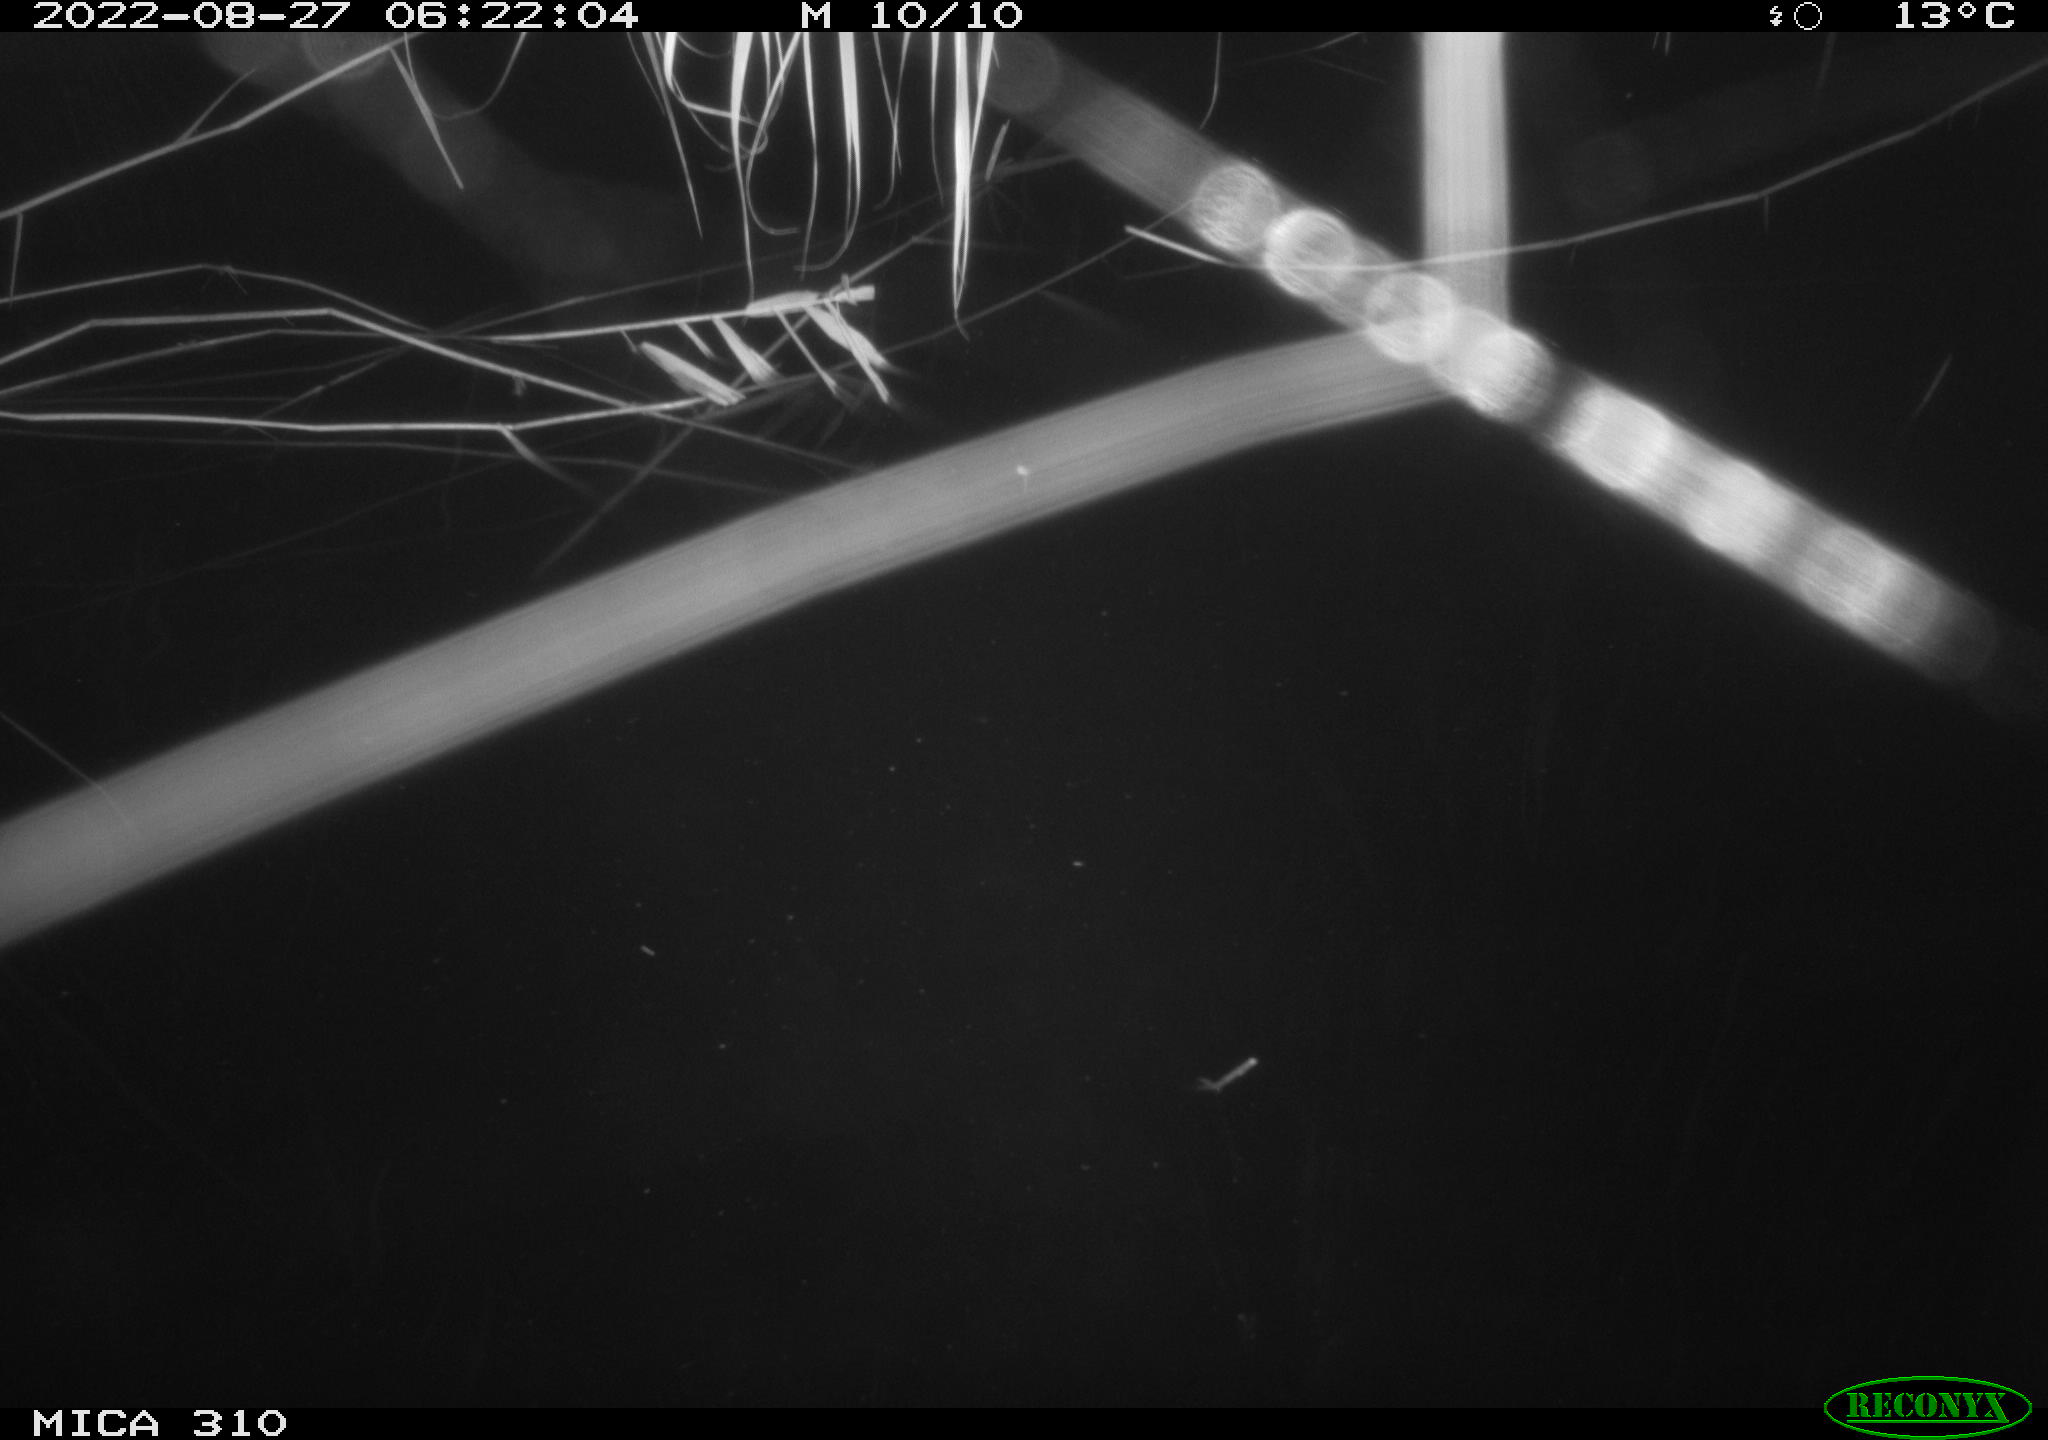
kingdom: Animalia
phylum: Chordata
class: Aves
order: Anseriformes
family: Anatidae
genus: Anas
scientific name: Anas platyrhynchos
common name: Mallard
